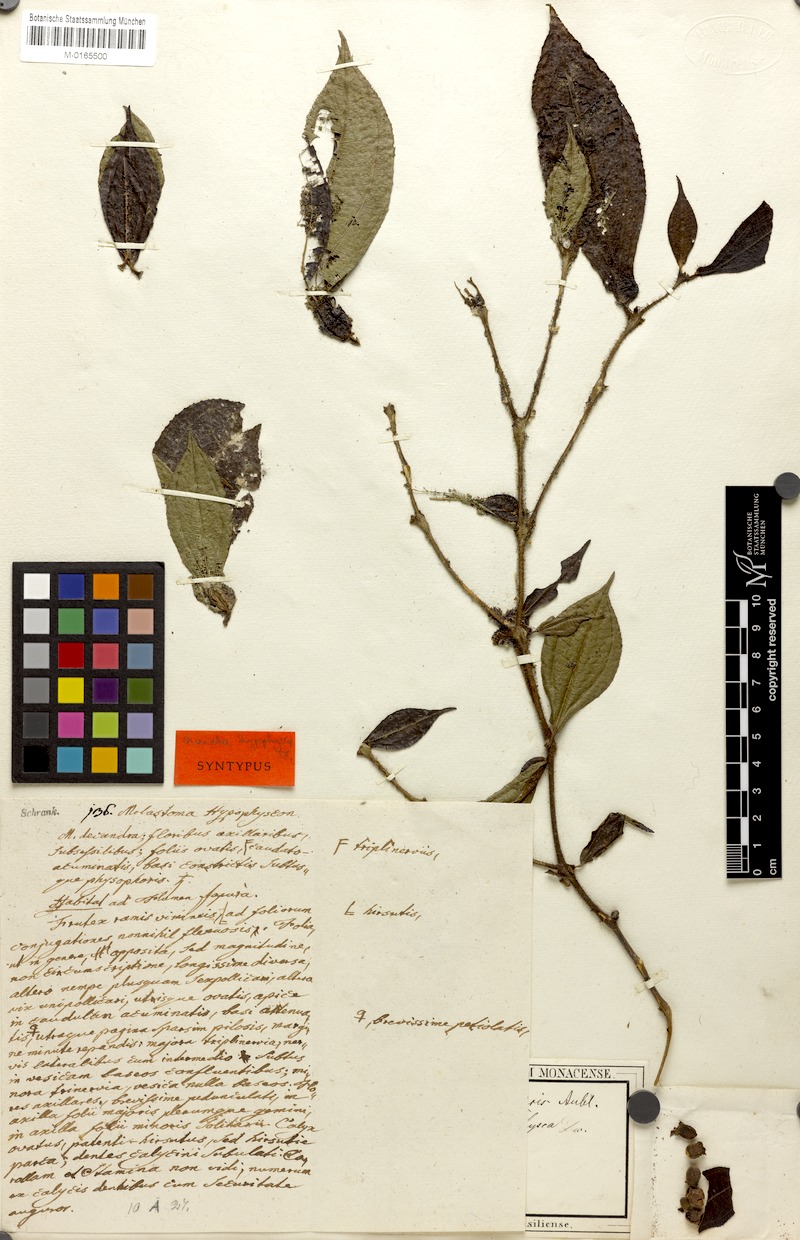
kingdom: Plantae
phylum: Tracheophyta
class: Magnoliopsida
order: Myrtales
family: Melastomataceae
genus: Miconia
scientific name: Miconia mayeta
